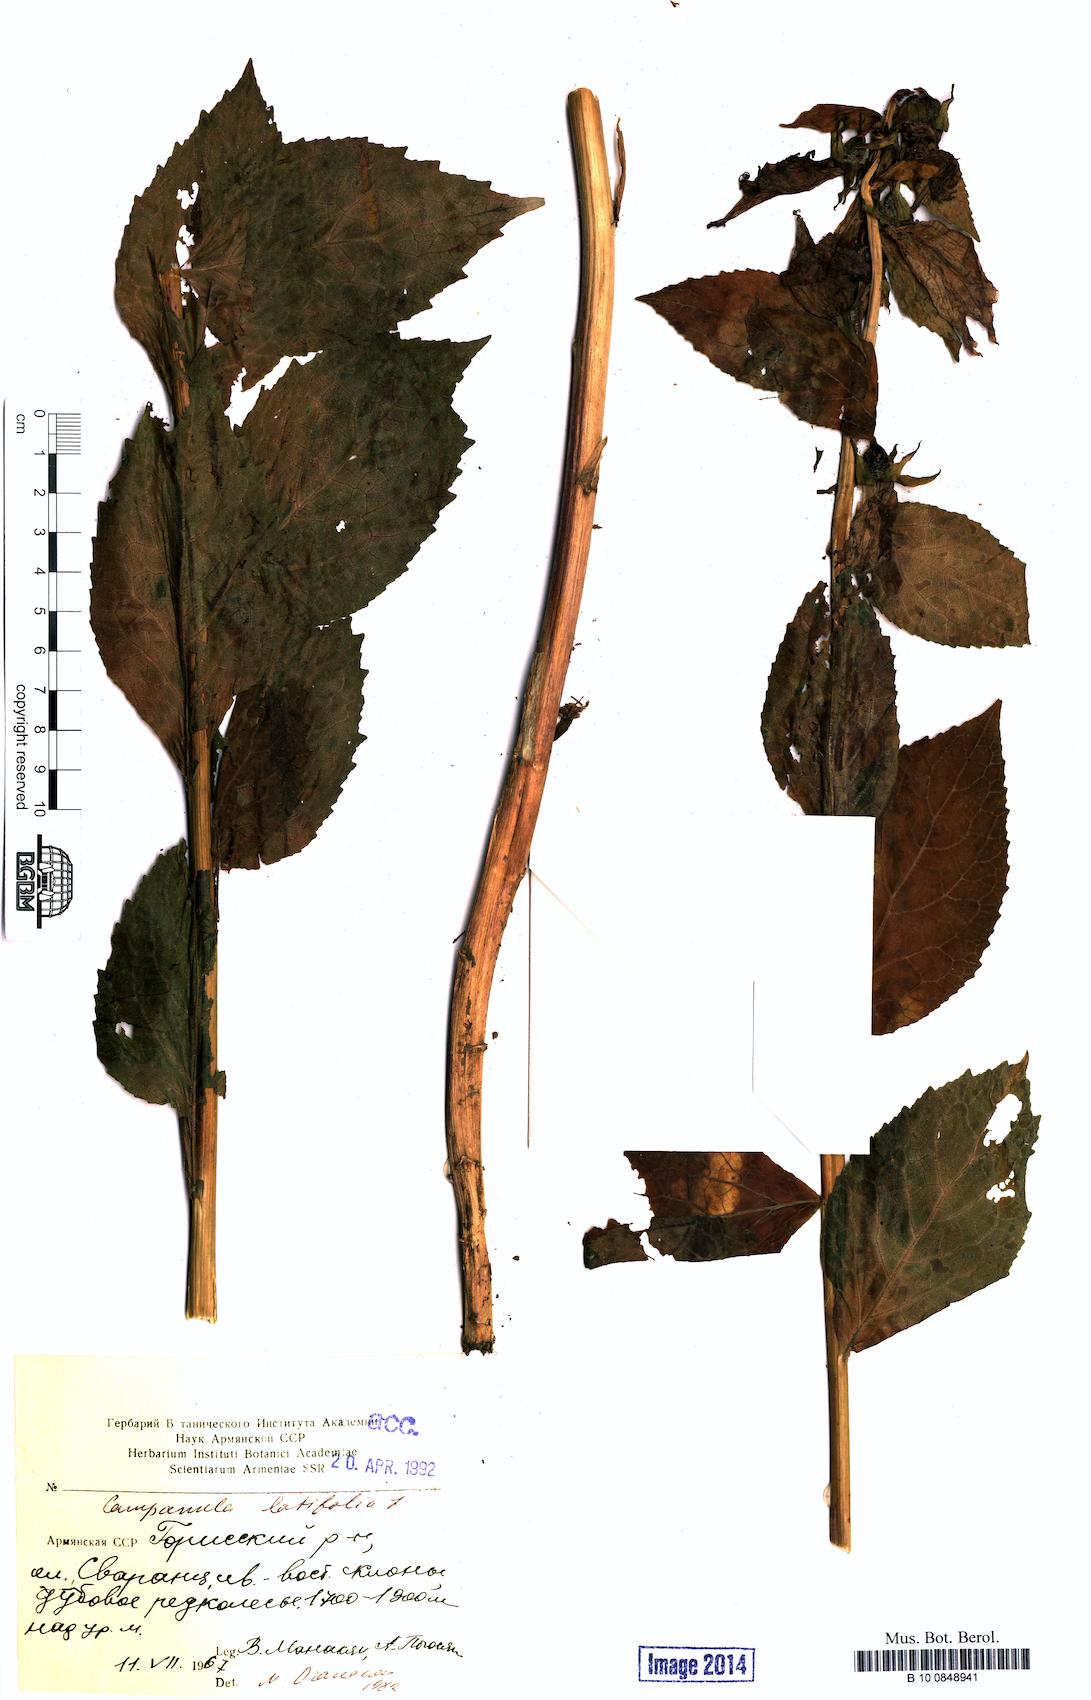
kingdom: Plantae
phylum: Tracheophyta
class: Magnoliopsida
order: Asterales
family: Campanulaceae
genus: Campanula
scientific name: Campanula latifolia
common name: Giant bellflower
